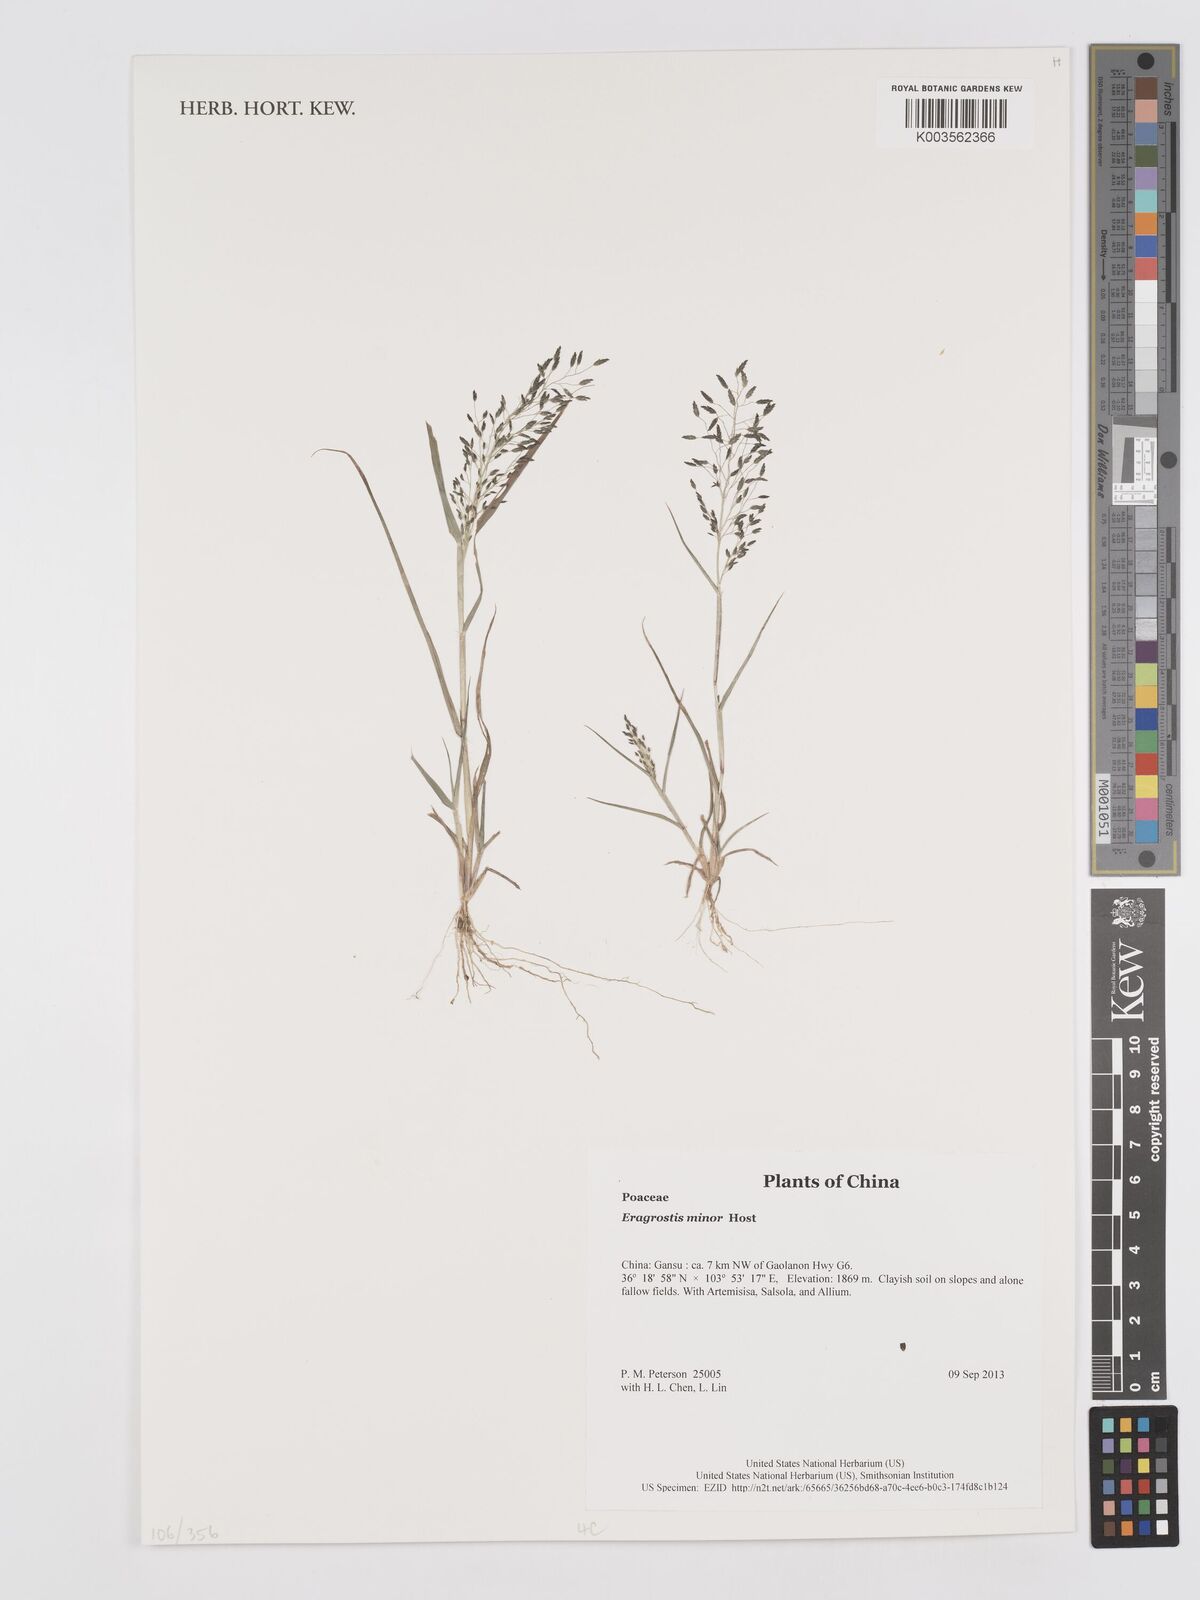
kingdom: Plantae
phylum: Tracheophyta
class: Liliopsida
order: Poales
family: Poaceae
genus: Eragrostis
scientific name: Eragrostis
